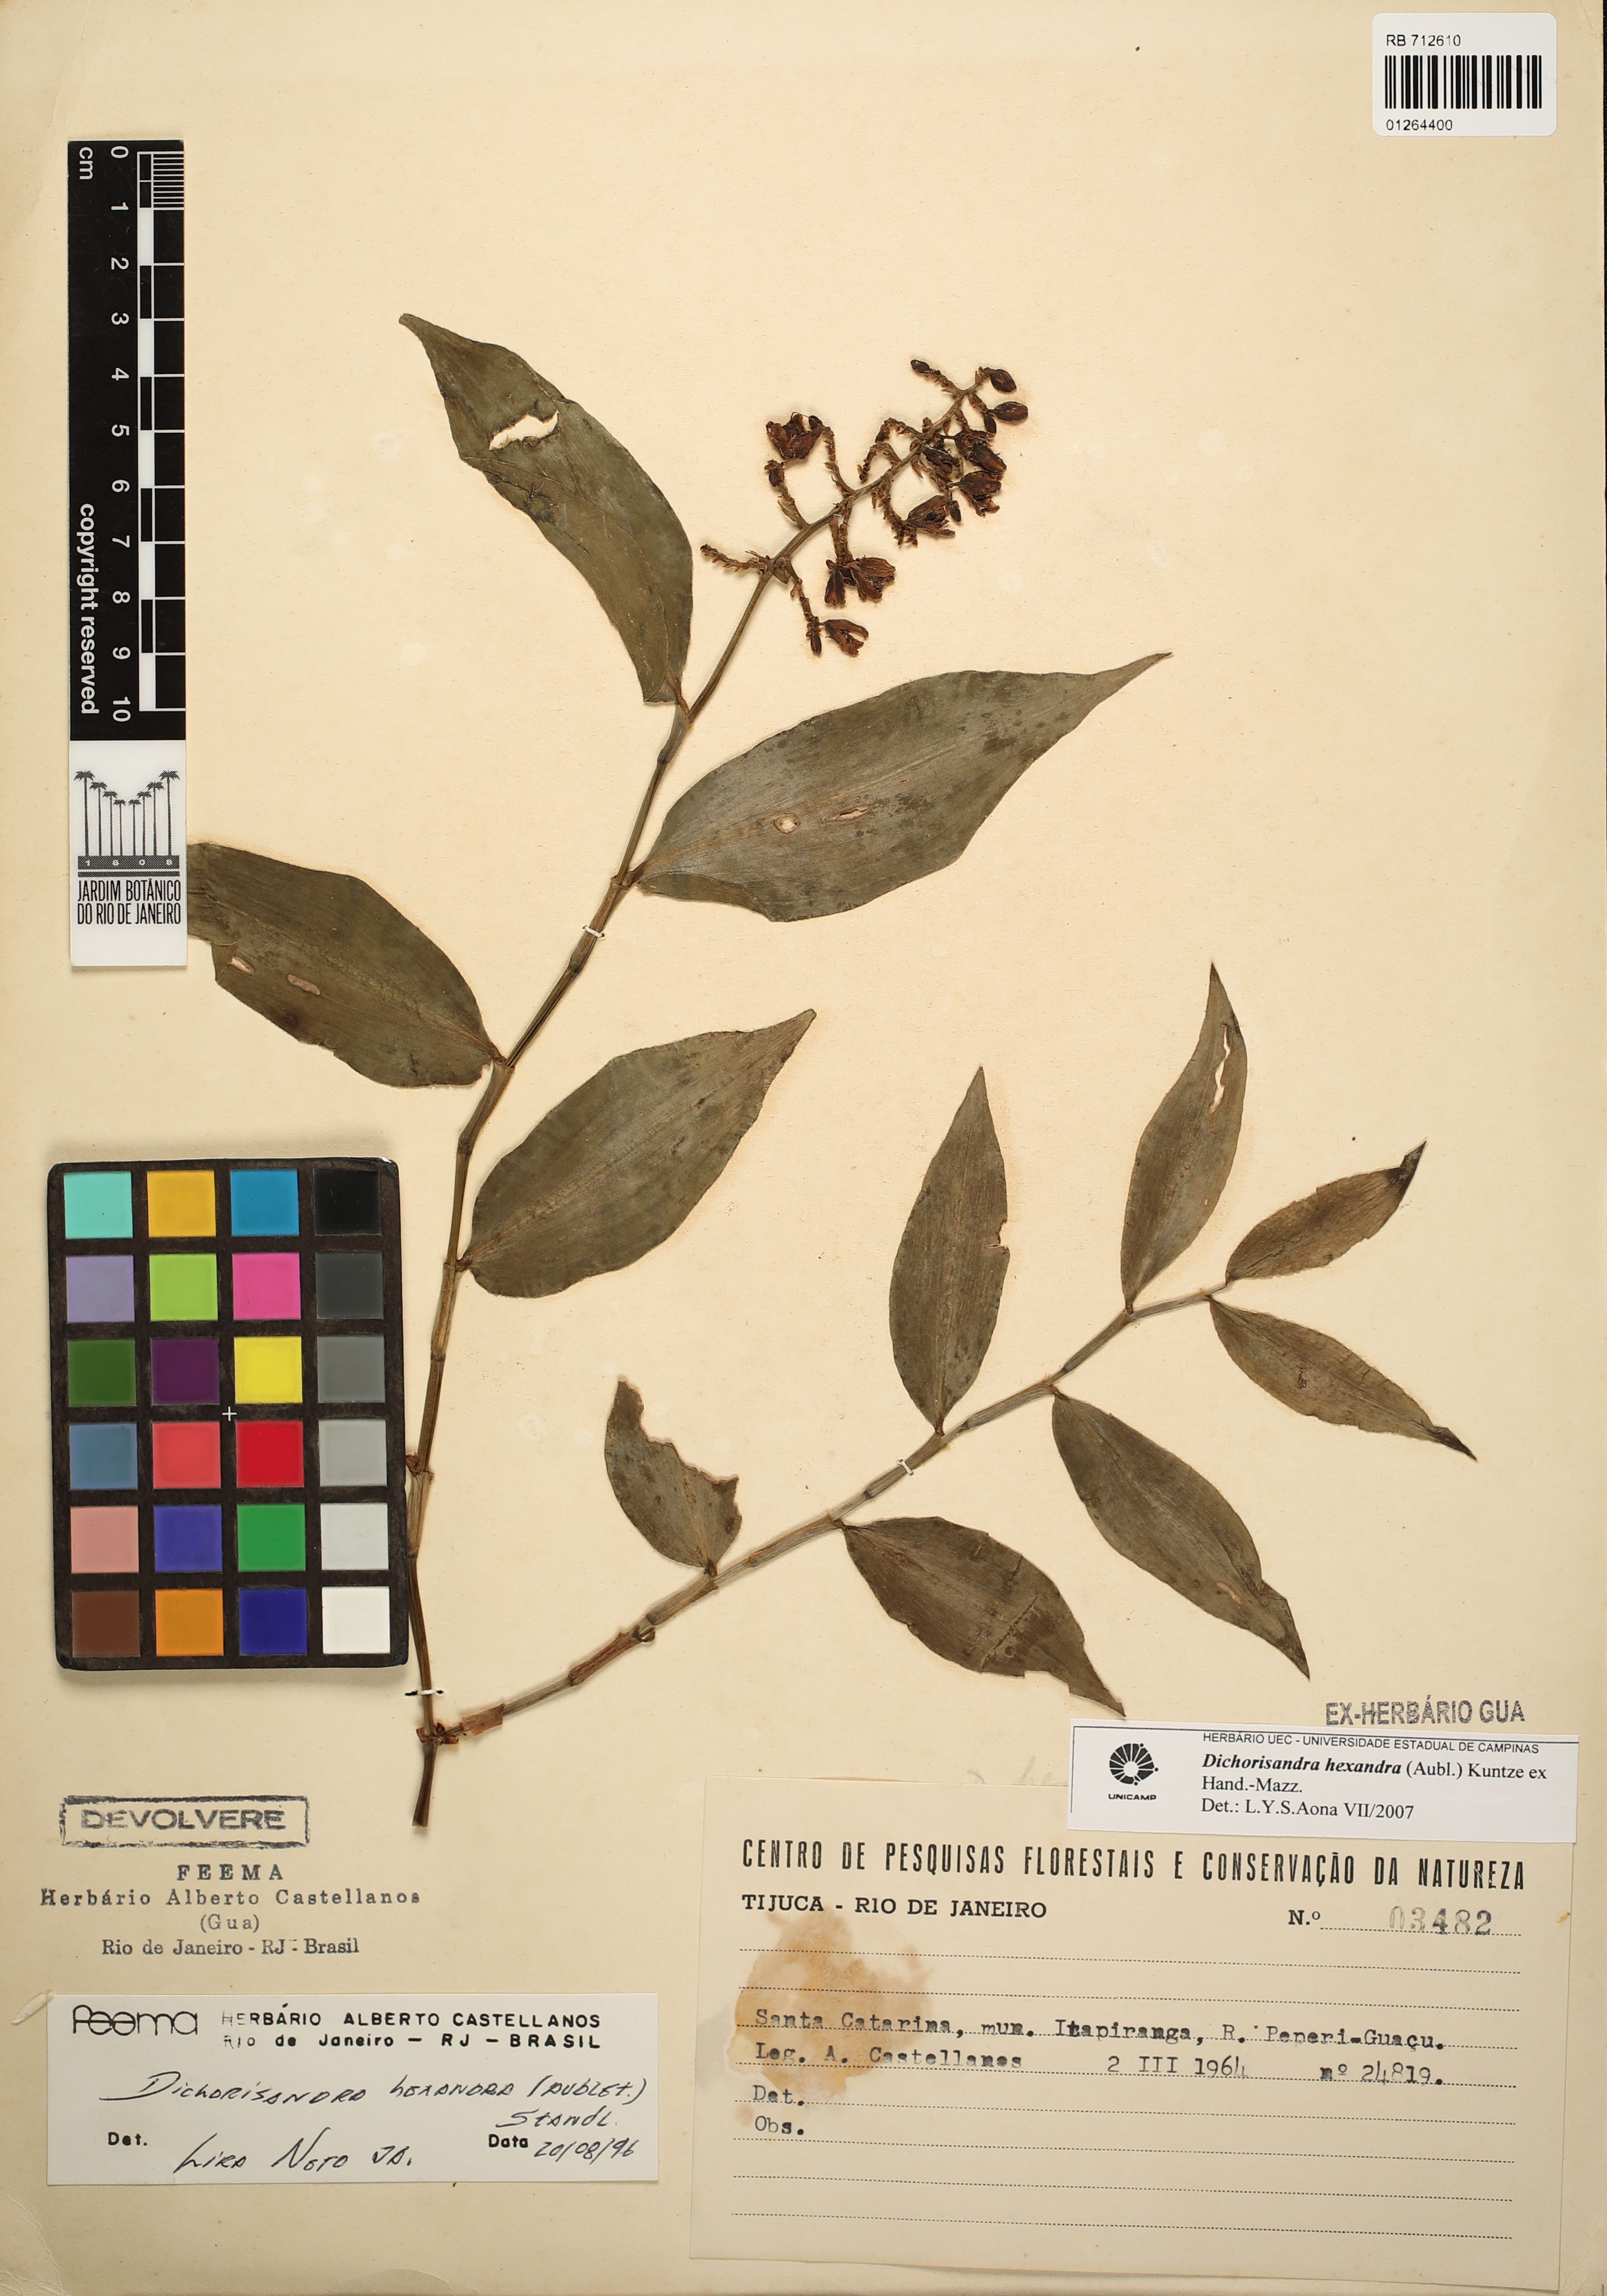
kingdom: Plantae
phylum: Tracheophyta
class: Liliopsida
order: Commelinales
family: Commelinaceae
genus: Dichorisandra
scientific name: Dichorisandra hexandra
